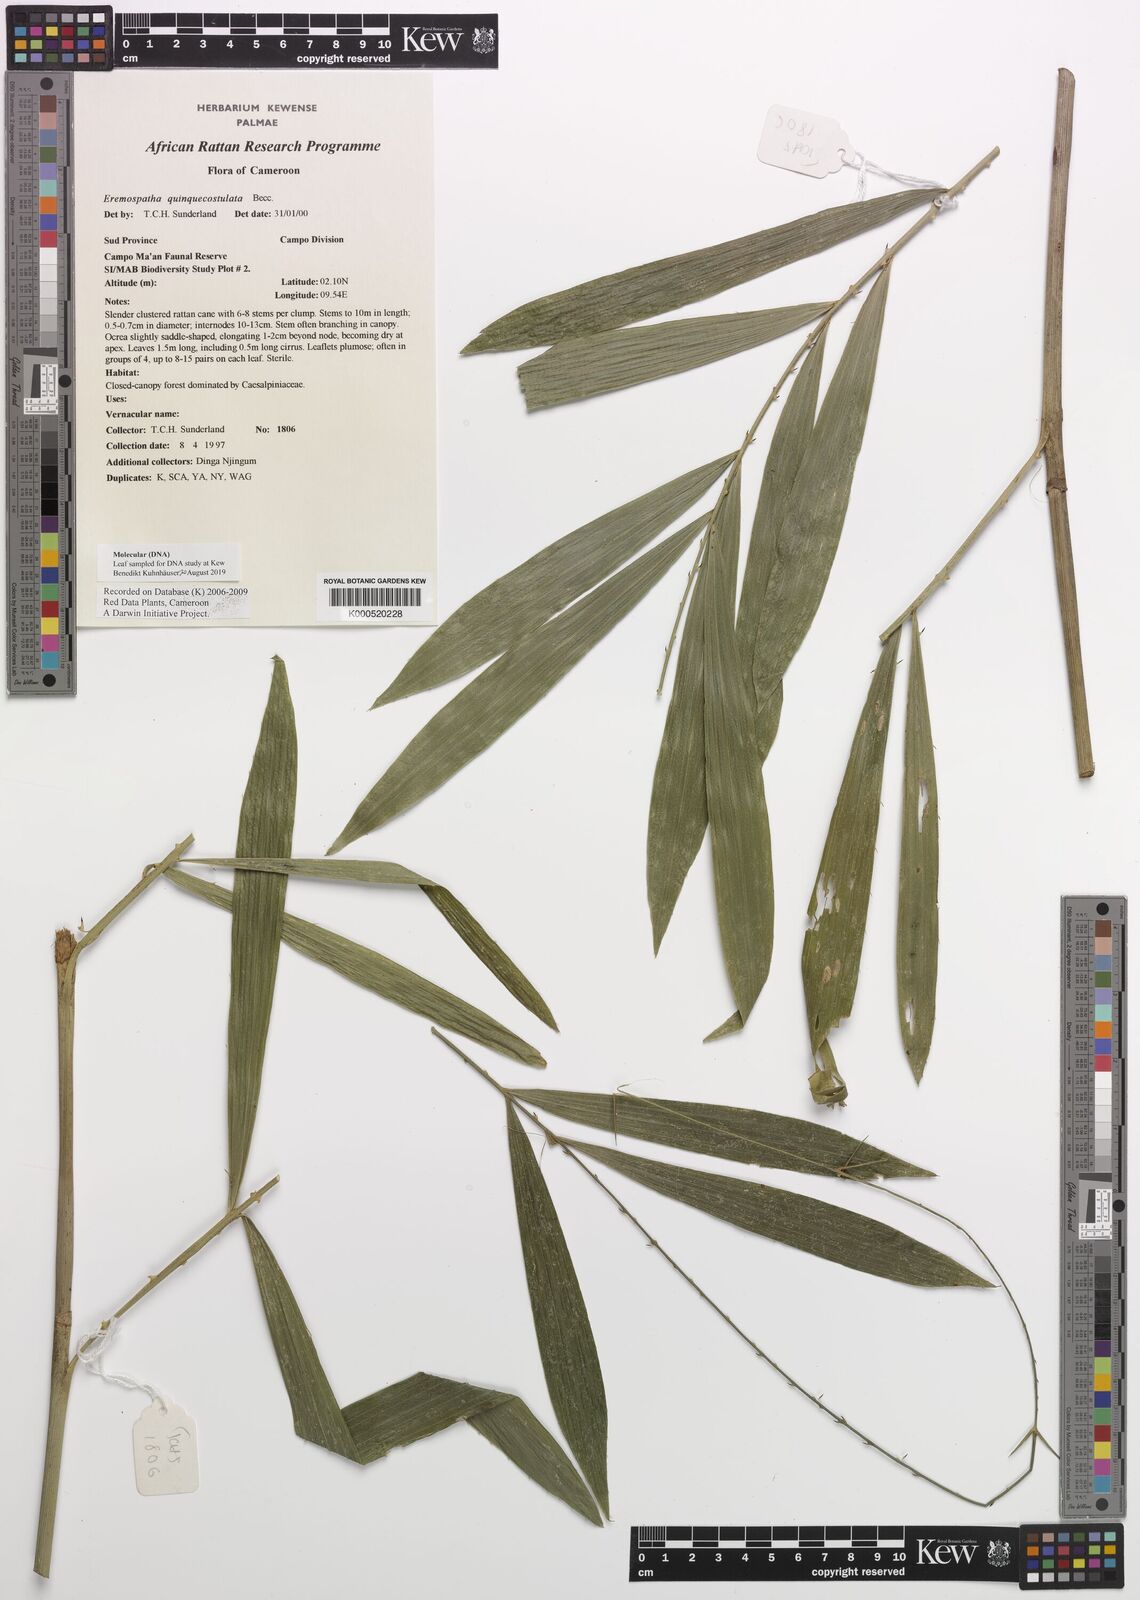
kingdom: Plantae
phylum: Tracheophyta
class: Liliopsida
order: Arecales
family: Arecaceae
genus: Eremospatha
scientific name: Eremospatha quinquecostulata
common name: Rattan
